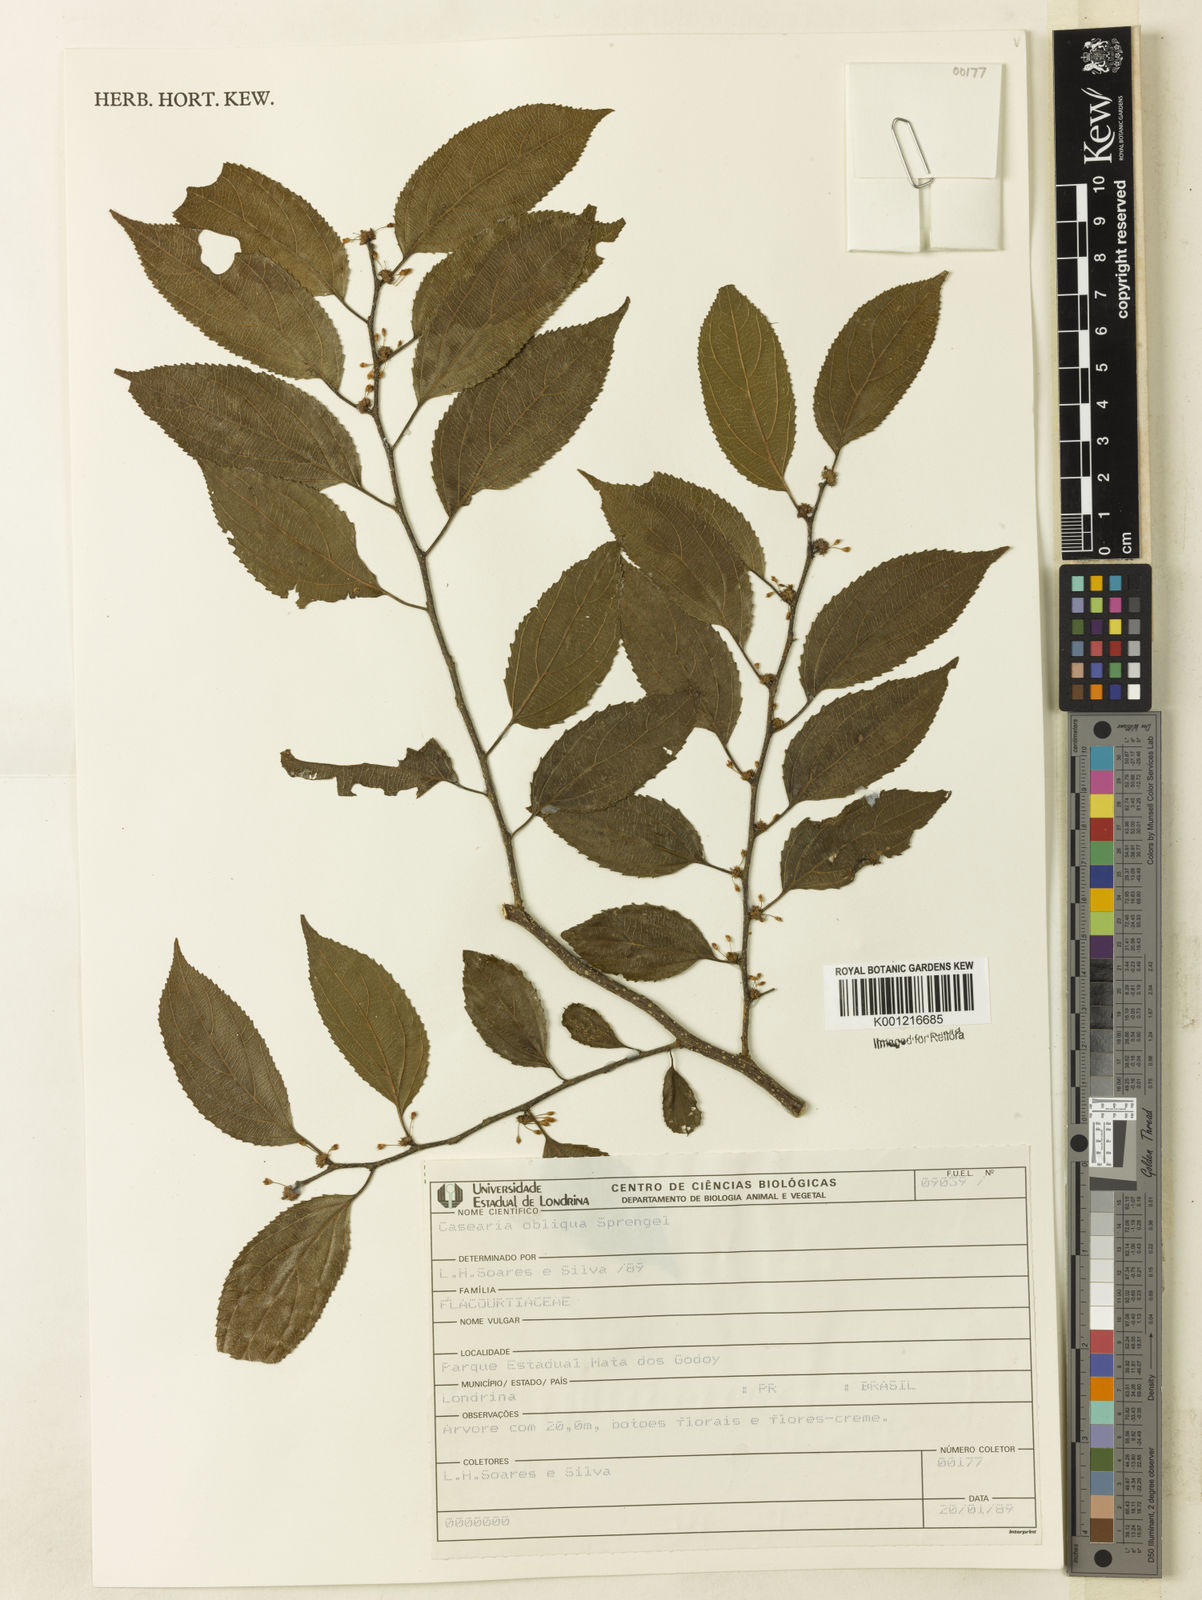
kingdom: Plantae
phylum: Tracheophyta
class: Magnoliopsida
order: Malpighiales
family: Salicaceae
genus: Casearia
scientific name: Casearia obliqua
